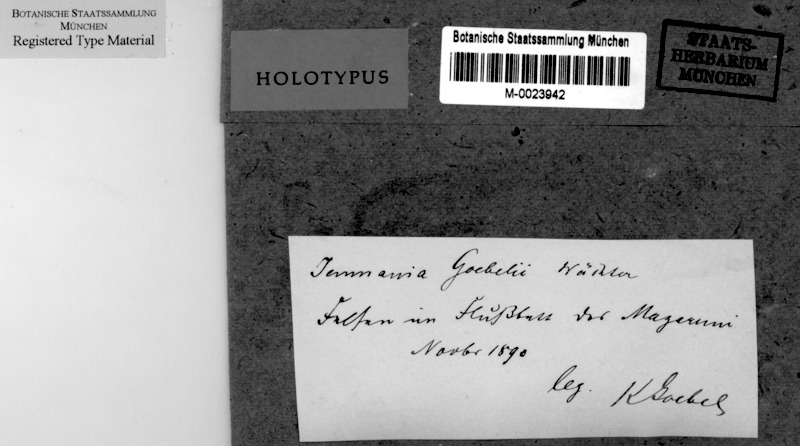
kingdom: Fungi
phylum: Ascomycota
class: Lichinomycetes
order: Lichinales
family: Lichinaceae
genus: Jenmania
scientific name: Jenmania goebelii
